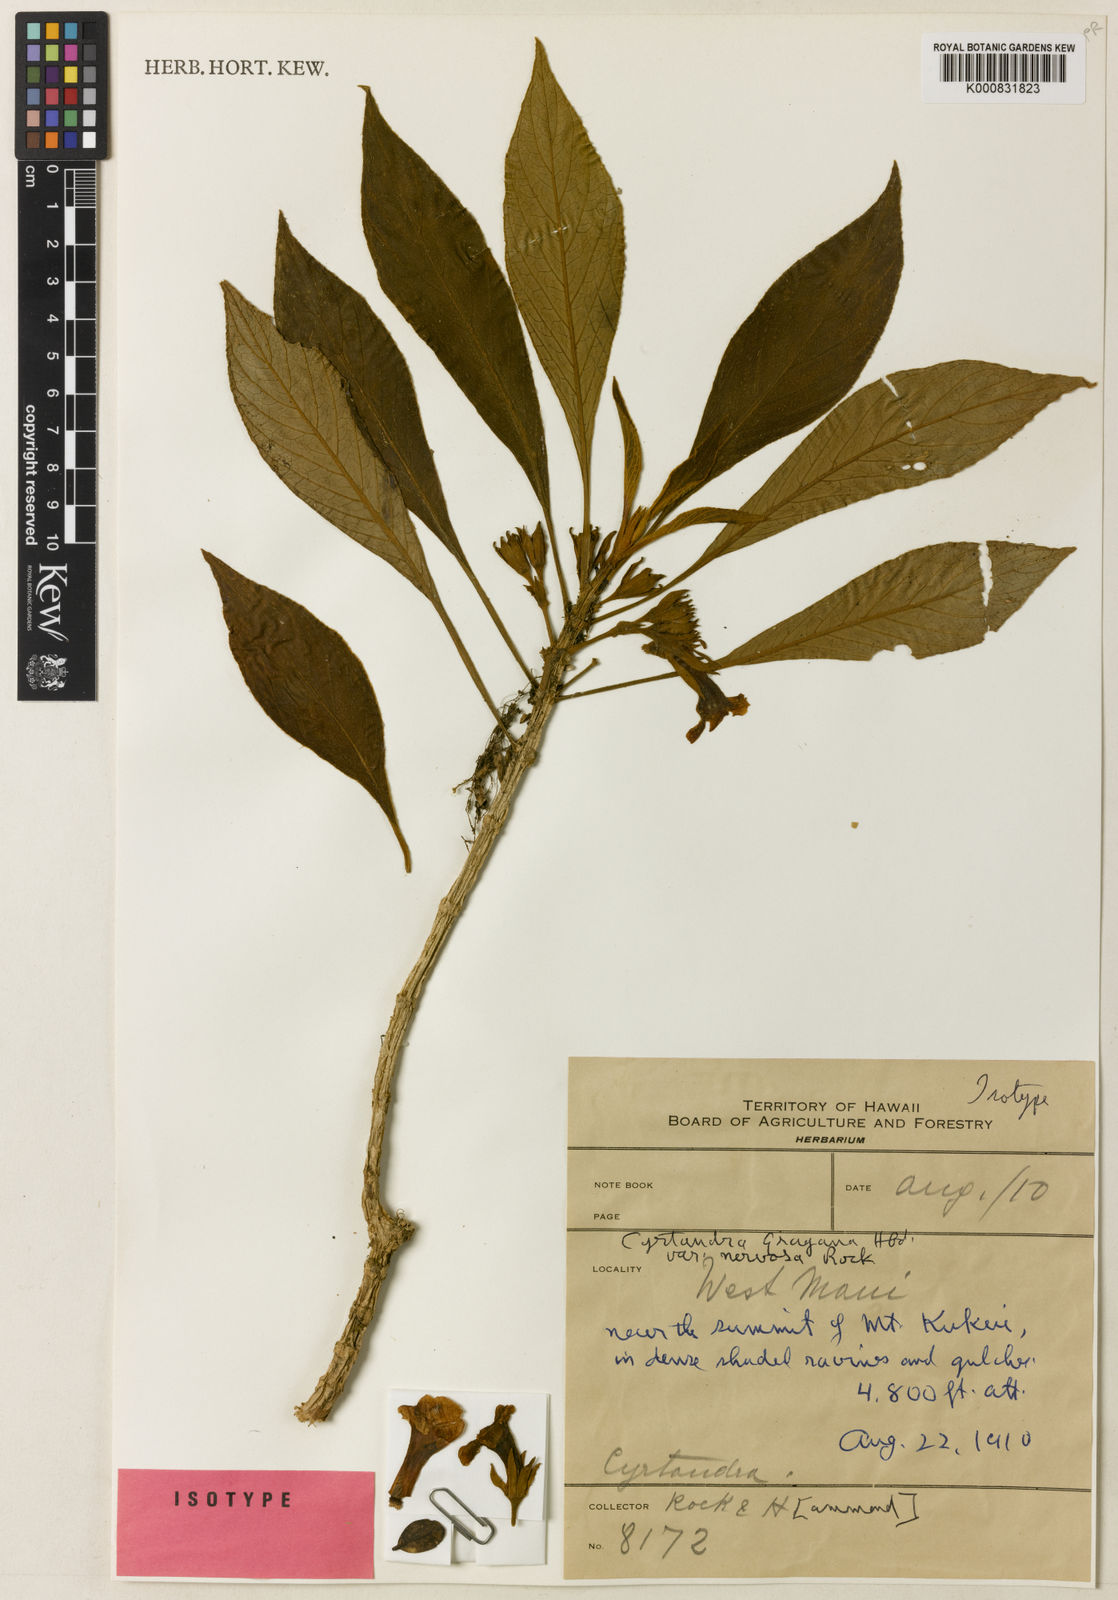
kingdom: Plantae
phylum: Tracheophyta
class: Magnoliopsida
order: Lamiales
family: Gesneriaceae
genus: Cyrtandra
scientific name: Cyrtandra grayana
